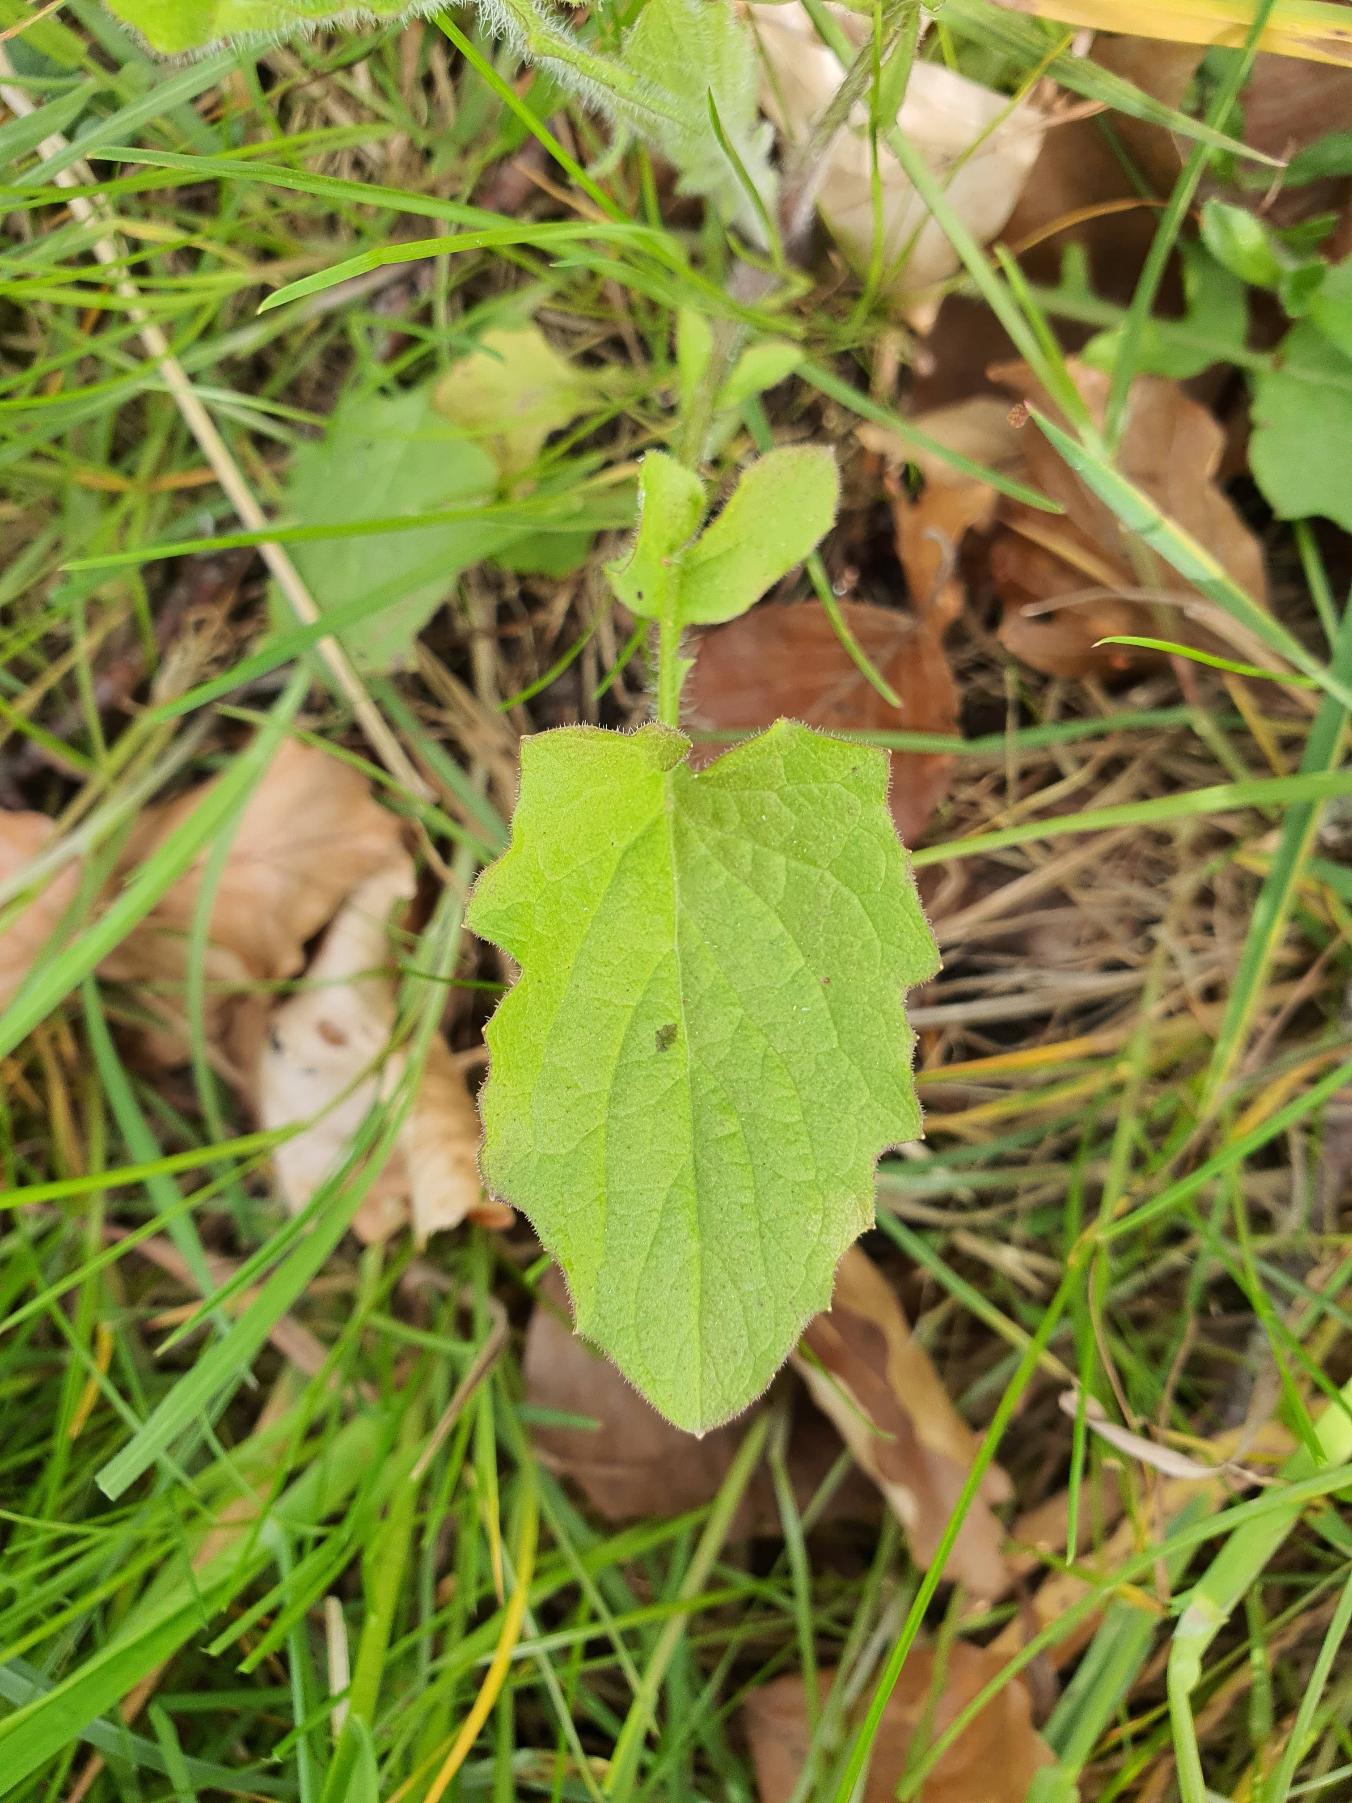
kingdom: Plantae
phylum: Tracheophyta
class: Magnoliopsida
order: Asterales
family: Asteraceae
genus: Lapsana
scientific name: Lapsana communis
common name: Haremad
